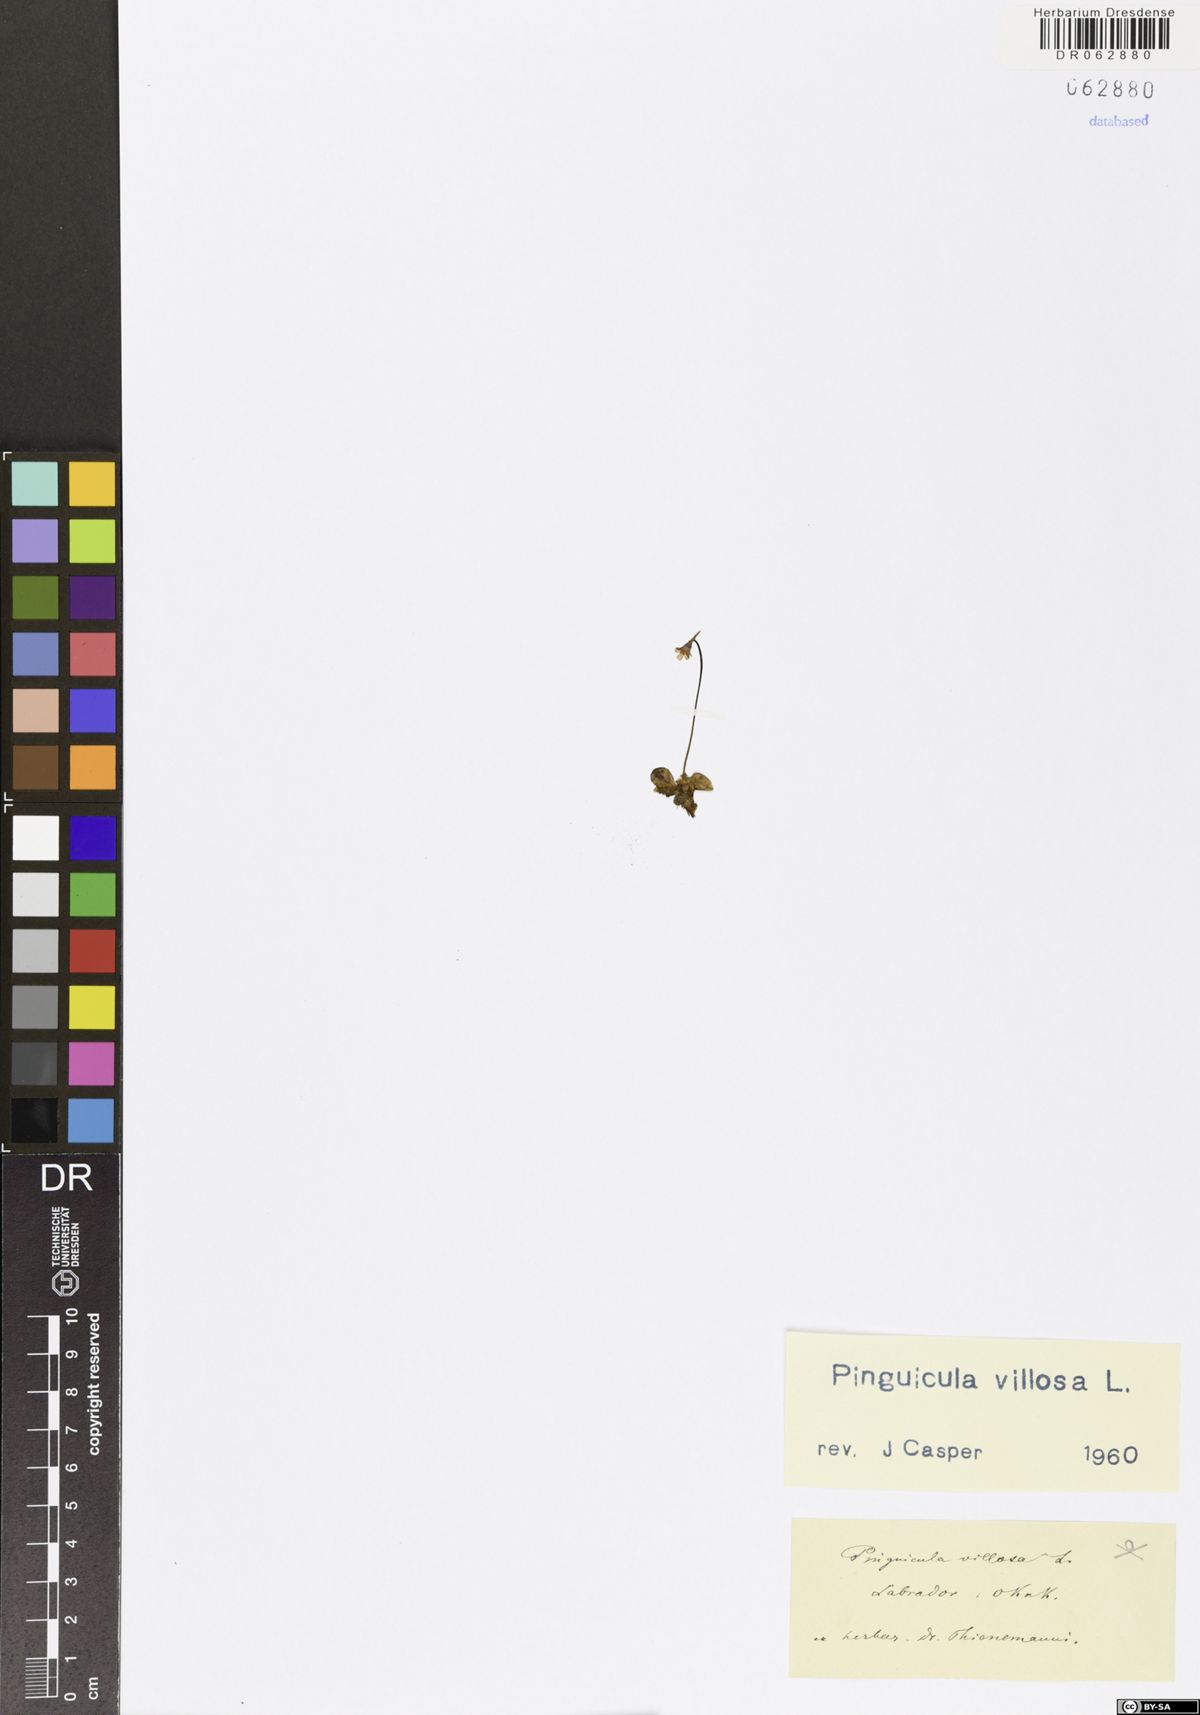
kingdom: Plantae
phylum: Tracheophyta
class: Magnoliopsida
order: Lamiales
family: Lentibulariaceae
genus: Pinguicula
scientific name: Pinguicula villosa
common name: Hairy butterwort
